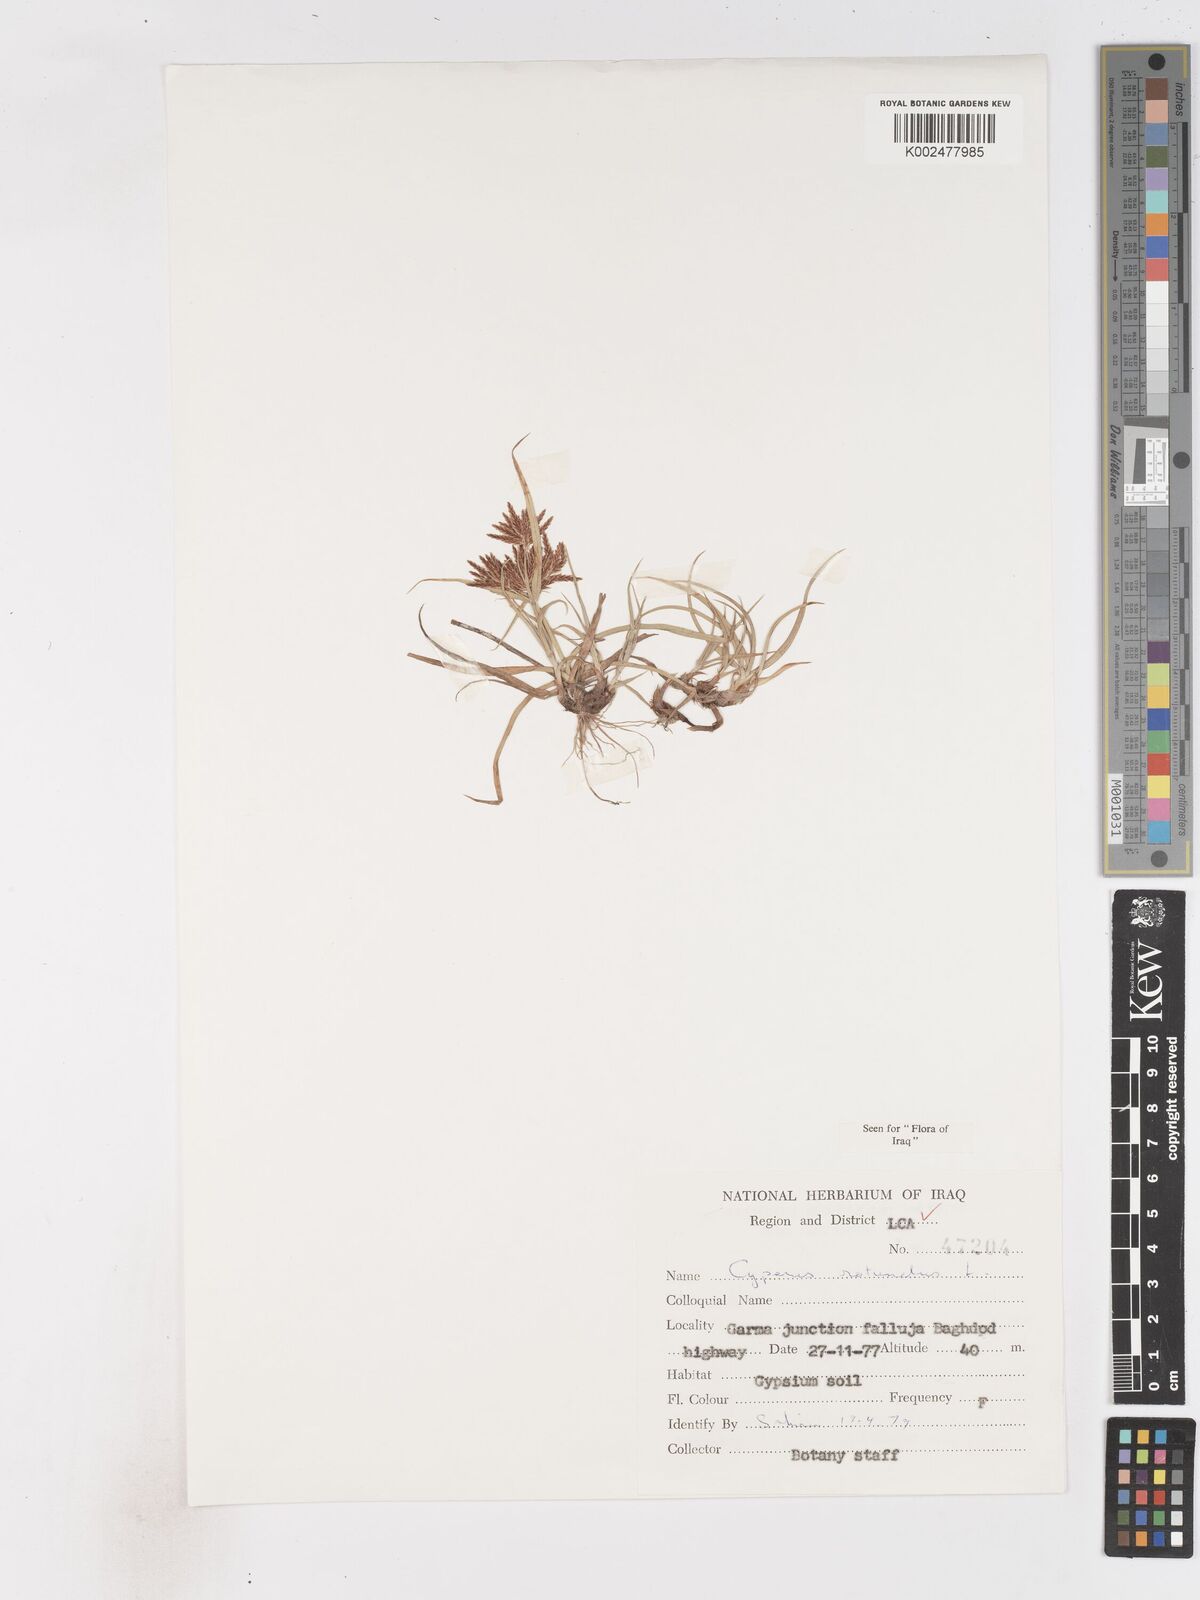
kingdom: Plantae
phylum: Tracheophyta
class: Liliopsida
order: Poales
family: Cyperaceae
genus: Cyperus
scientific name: Cyperus rotundus
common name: Nutgrass
